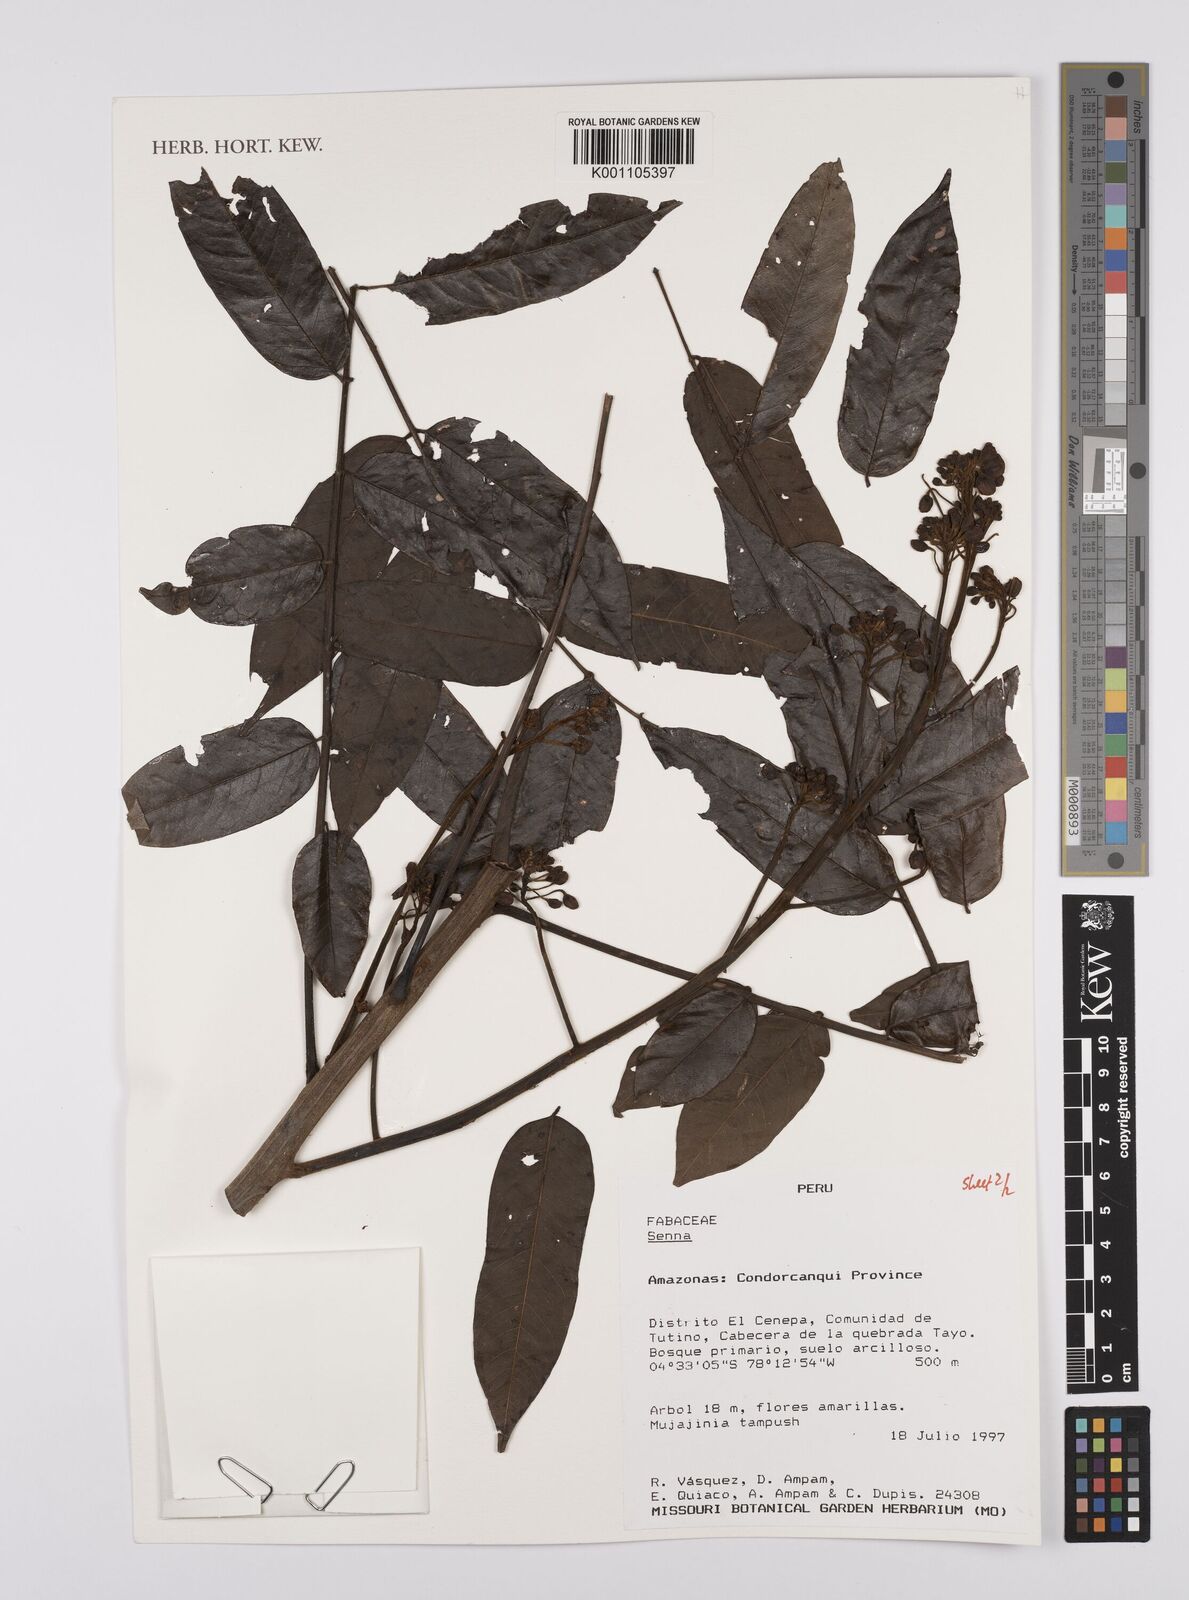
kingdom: Plantae
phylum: Tracheophyta
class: Magnoliopsida
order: Fabales
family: Fabaceae
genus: Senna
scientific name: Senna
